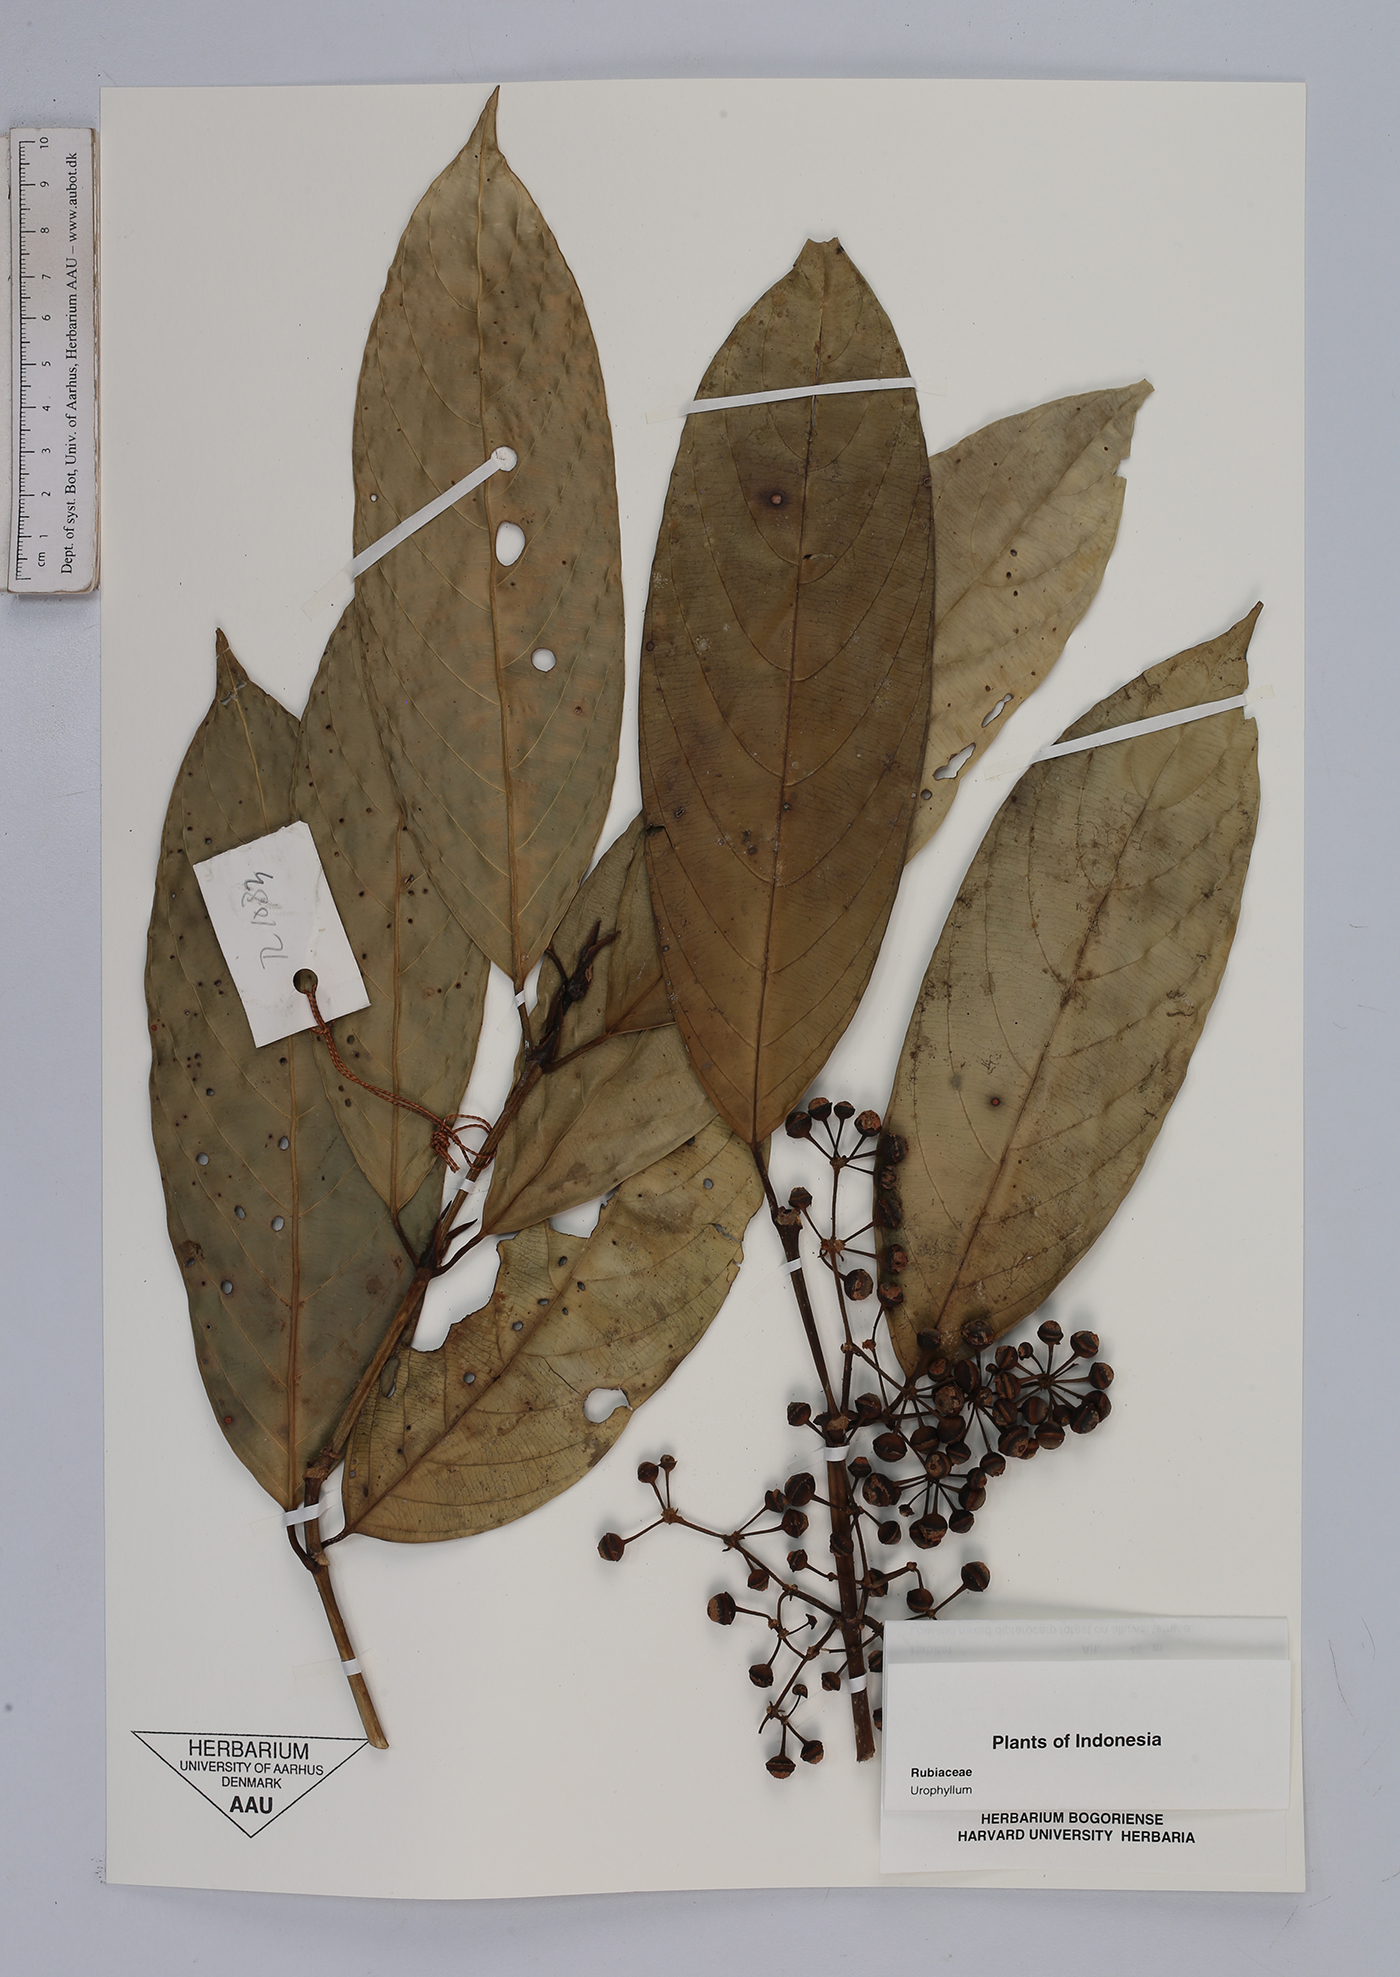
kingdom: Plantae
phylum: Tracheophyta
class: Magnoliopsida
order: Gentianales
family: Rubiaceae
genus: Urophyllum
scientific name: Urophyllum
